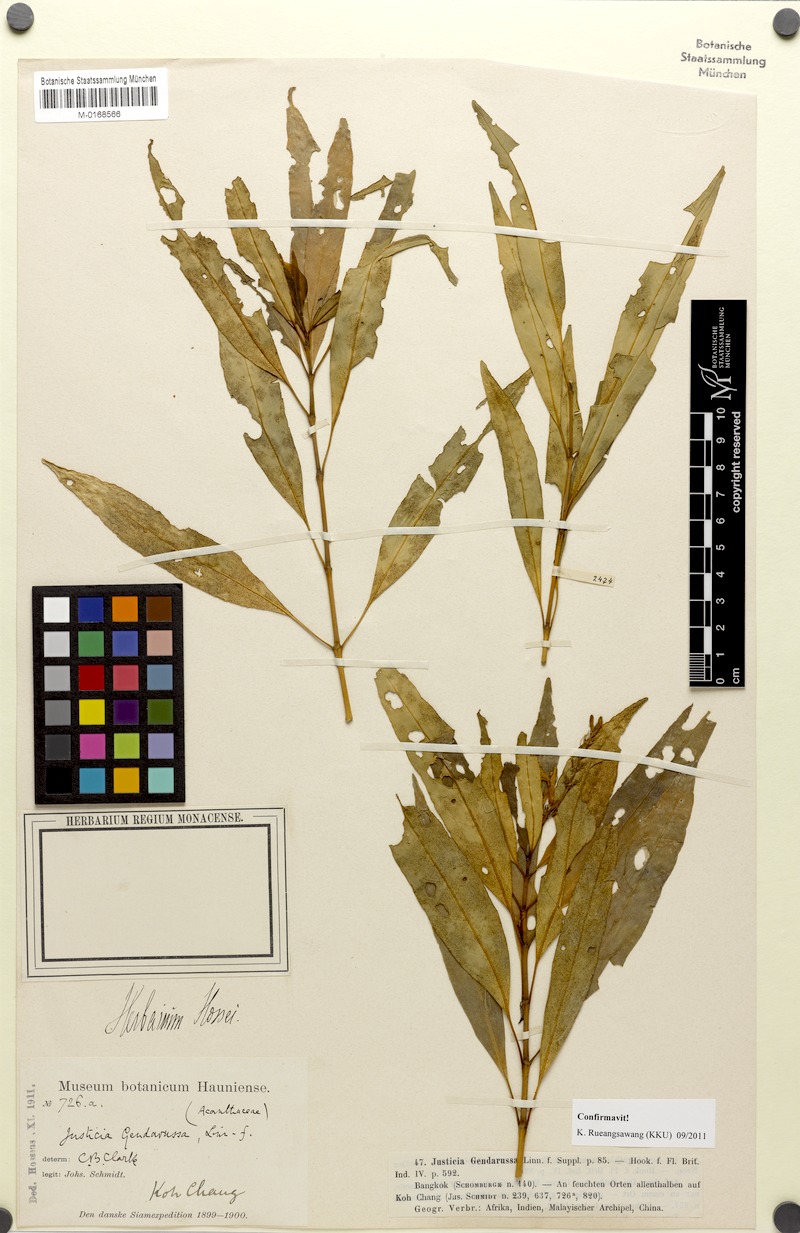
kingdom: Plantae
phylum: Tracheophyta
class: Magnoliopsida
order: Lamiales
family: Acanthaceae
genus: Justicia
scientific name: Justicia gendarussa
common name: Warer willow
